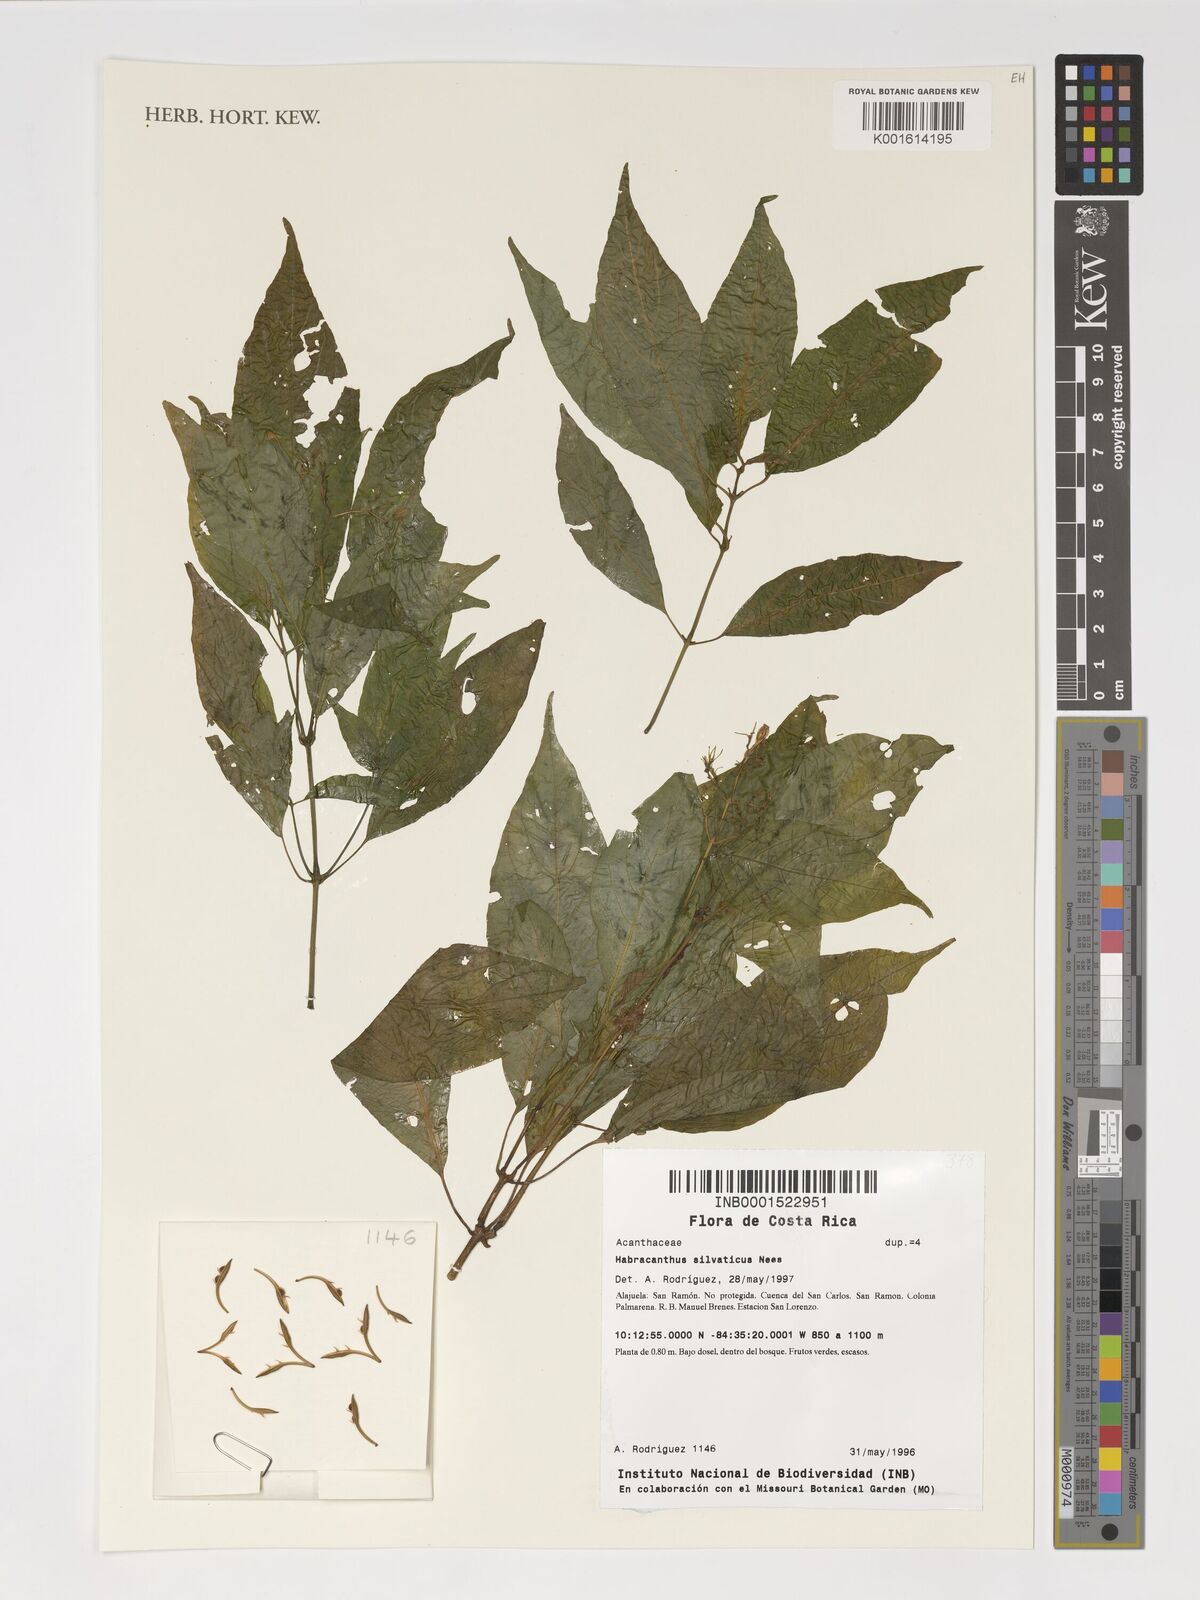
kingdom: Plantae
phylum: Tracheophyta
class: Magnoliopsida
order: Lamiales
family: Acanthaceae
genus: Stenostephanus
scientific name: Stenostephanus silvaticus
